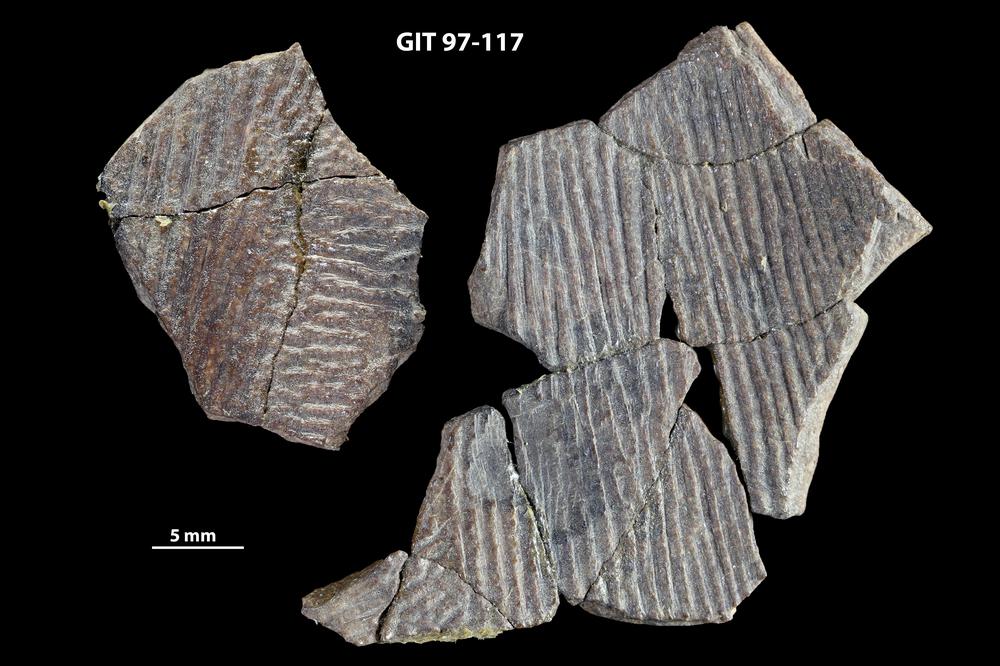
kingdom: Animalia
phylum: Chordata
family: Holonematidae
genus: Holonema
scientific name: Holonema
